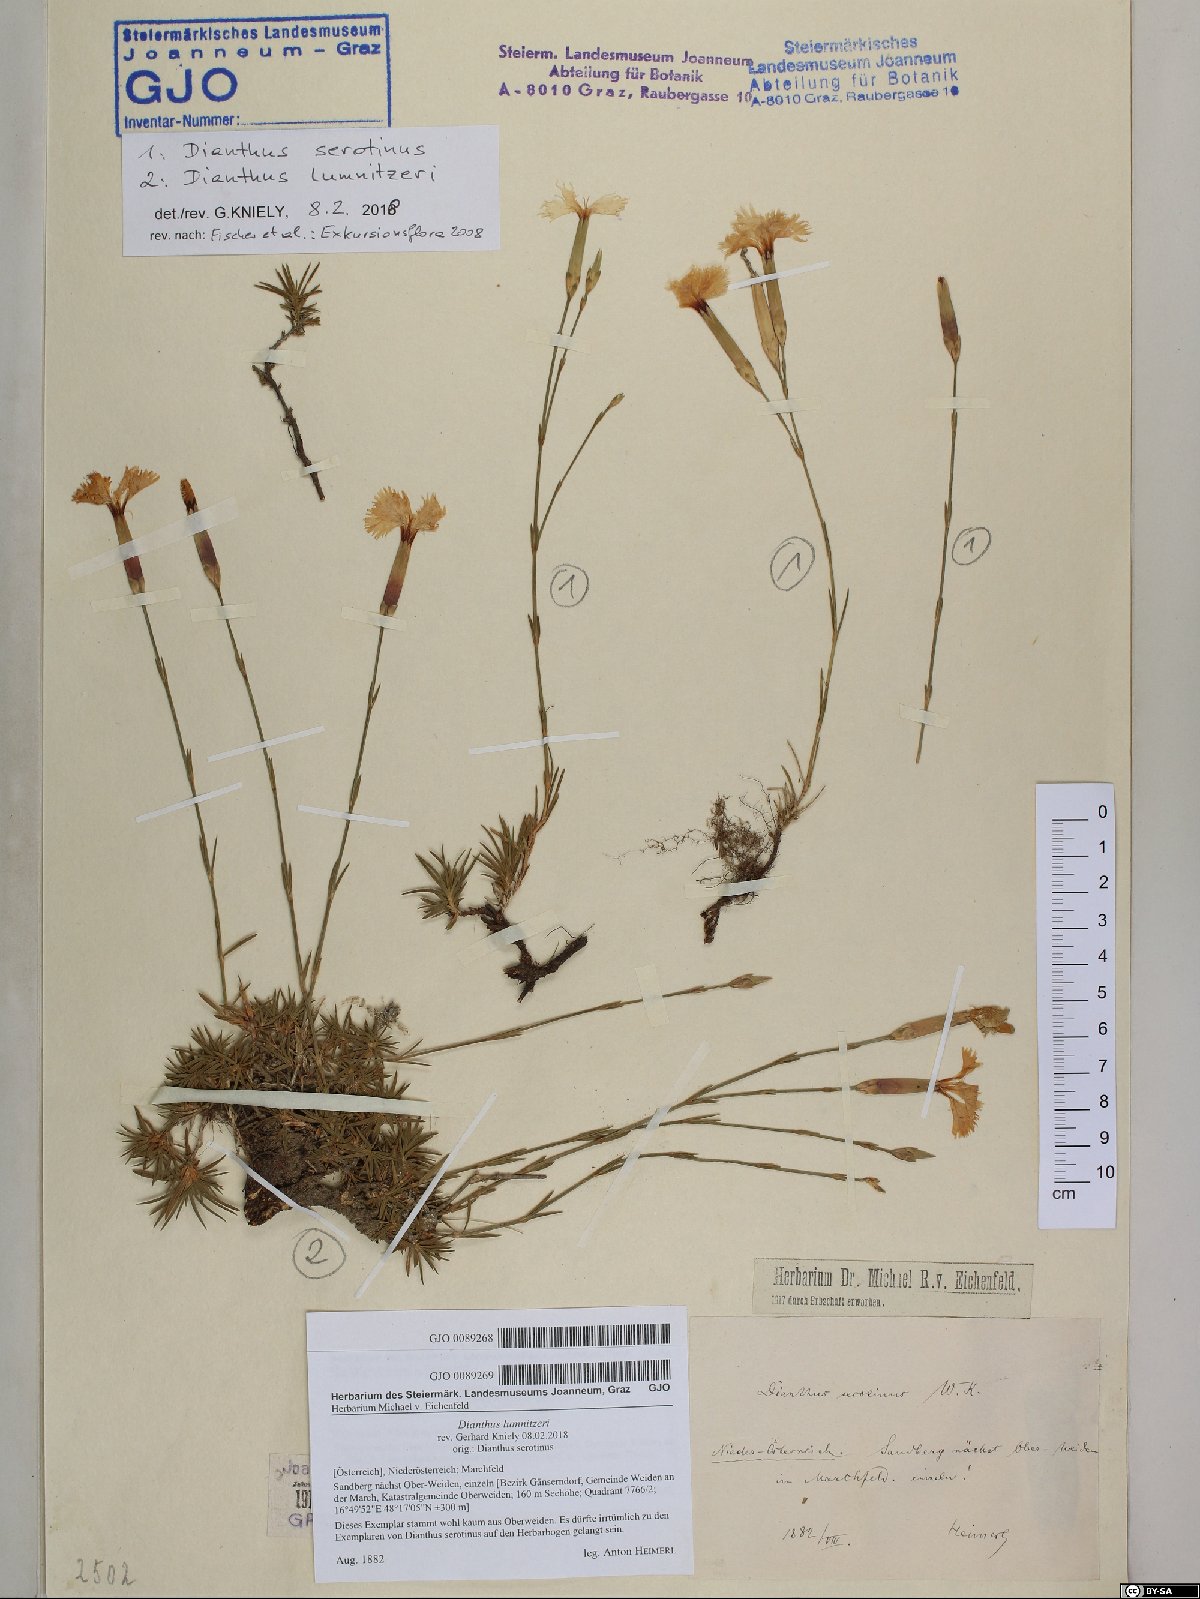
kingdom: Plantae
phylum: Tracheophyta
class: Magnoliopsida
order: Caryophyllales
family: Caryophyllaceae
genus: Dianthus
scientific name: Dianthus praecox
